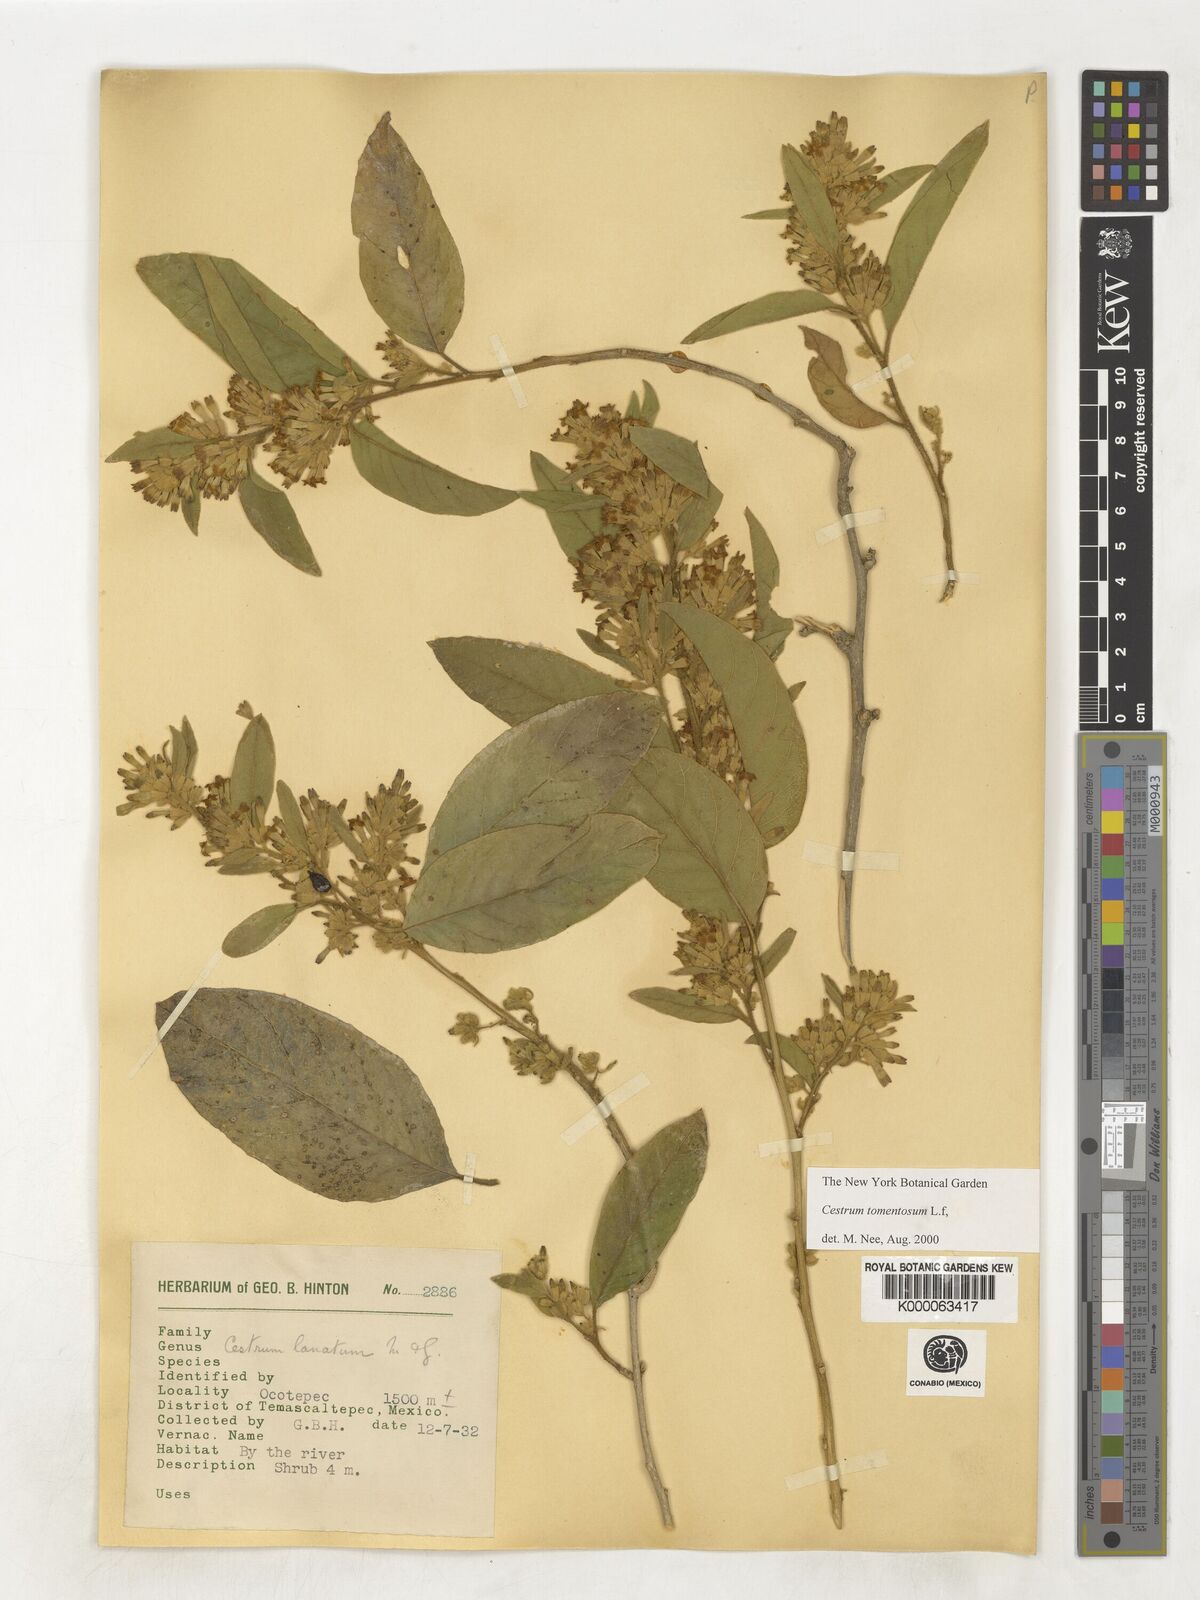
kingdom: Plantae
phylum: Tracheophyta
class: Magnoliopsida
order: Solanales
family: Solanaceae
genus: Cestrum
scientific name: Cestrum tomentosum
